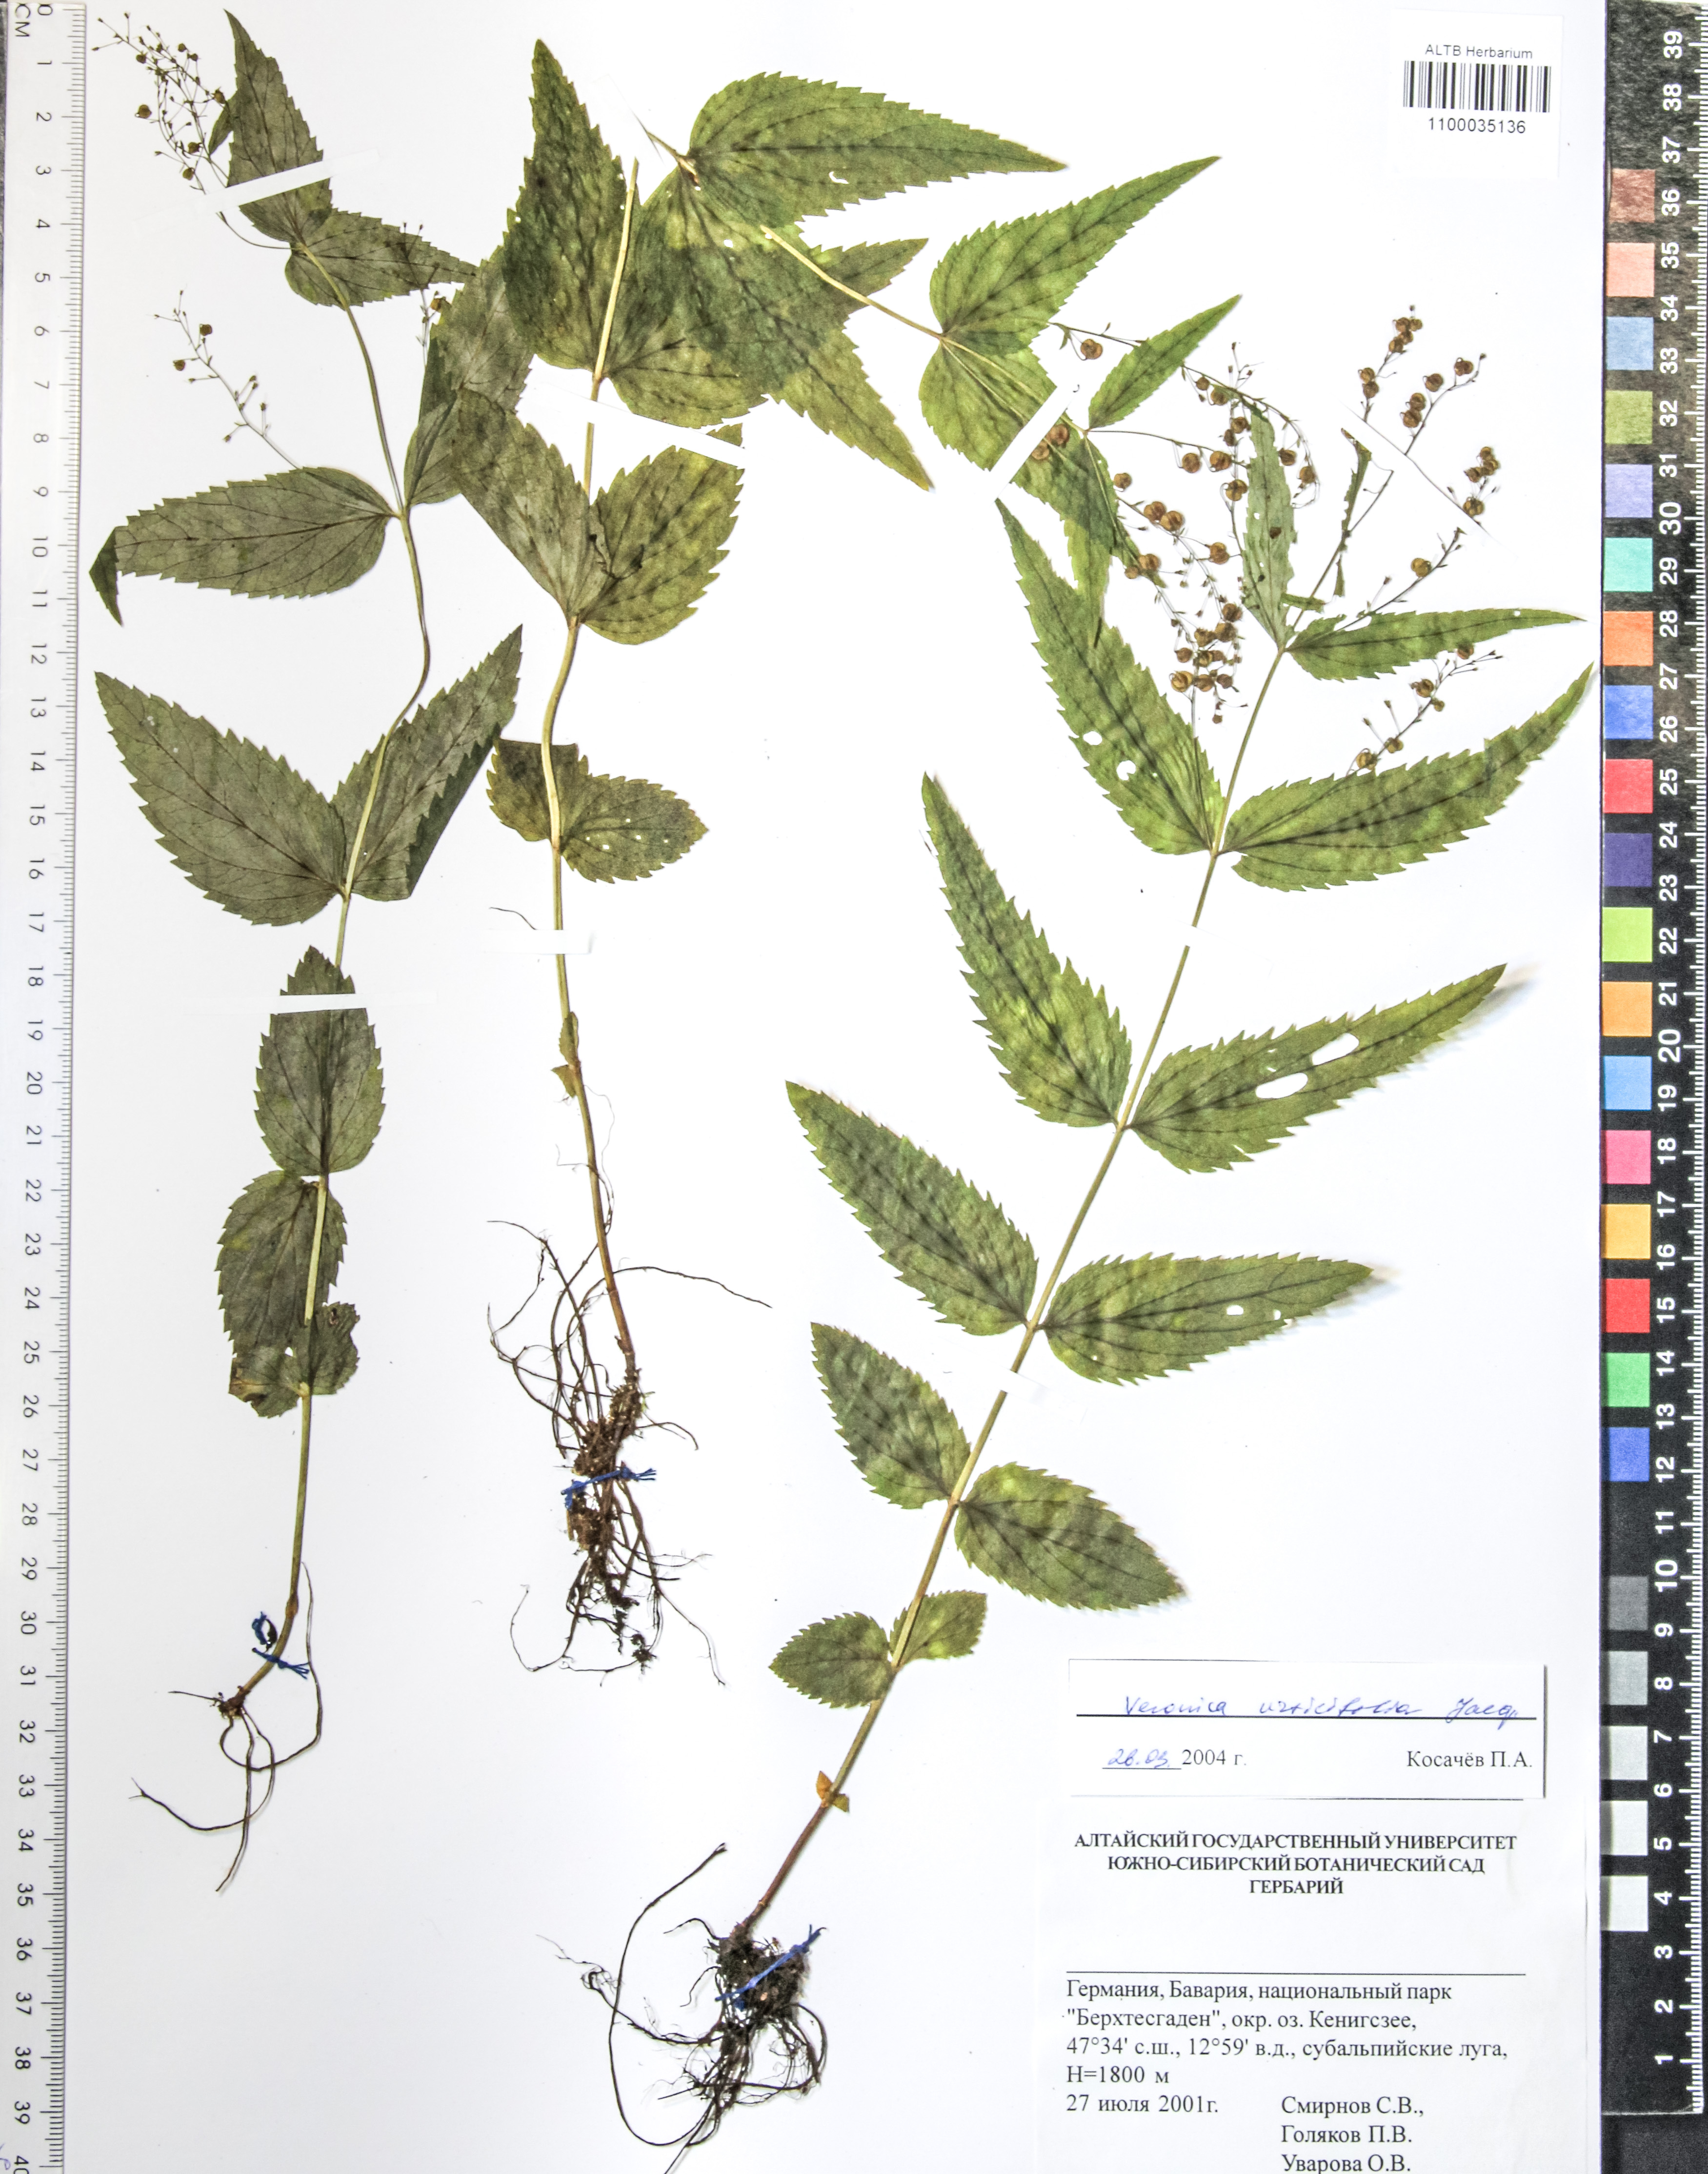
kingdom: Plantae
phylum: Tracheophyta
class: Magnoliopsida
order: Lamiales
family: Plantaginaceae
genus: Veronica
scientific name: Veronica urticifolia
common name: Nettle-leaf speedwell
